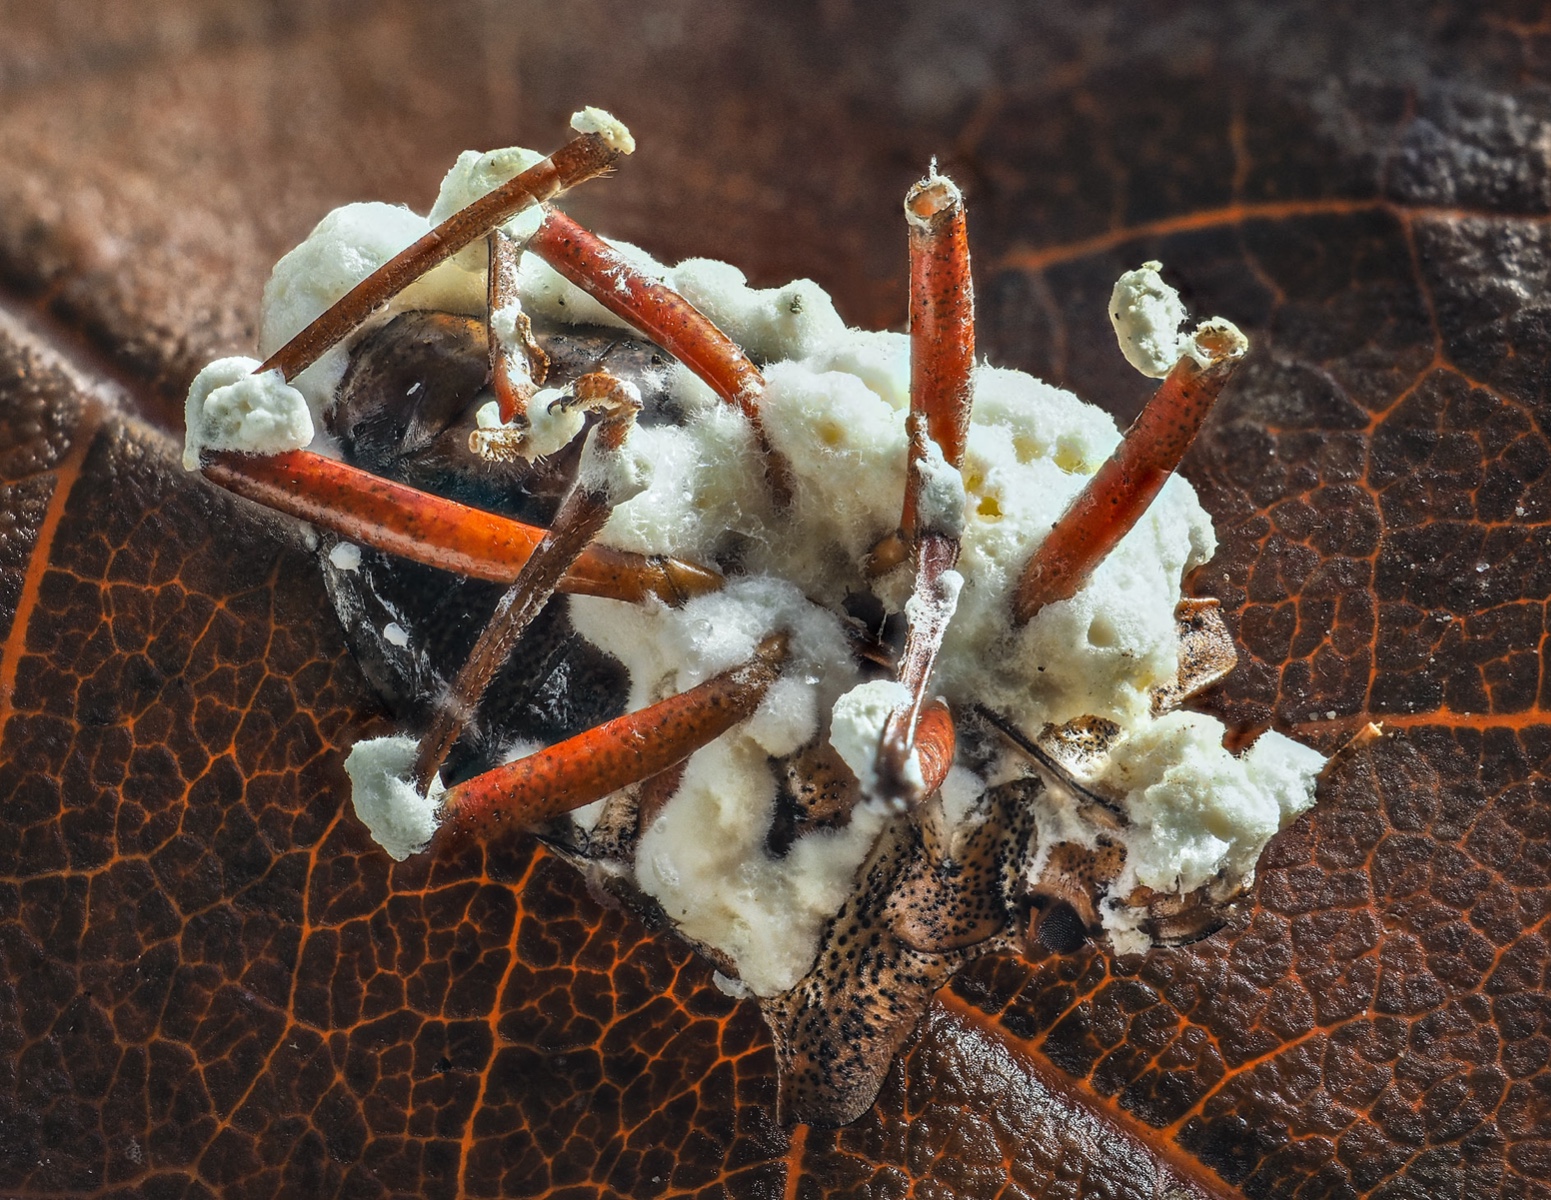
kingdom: Fungi
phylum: Ascomycota
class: Sordariomycetes
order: Hypocreales
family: Cordycipitaceae
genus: Beauveria
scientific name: Beauveria bassiana
